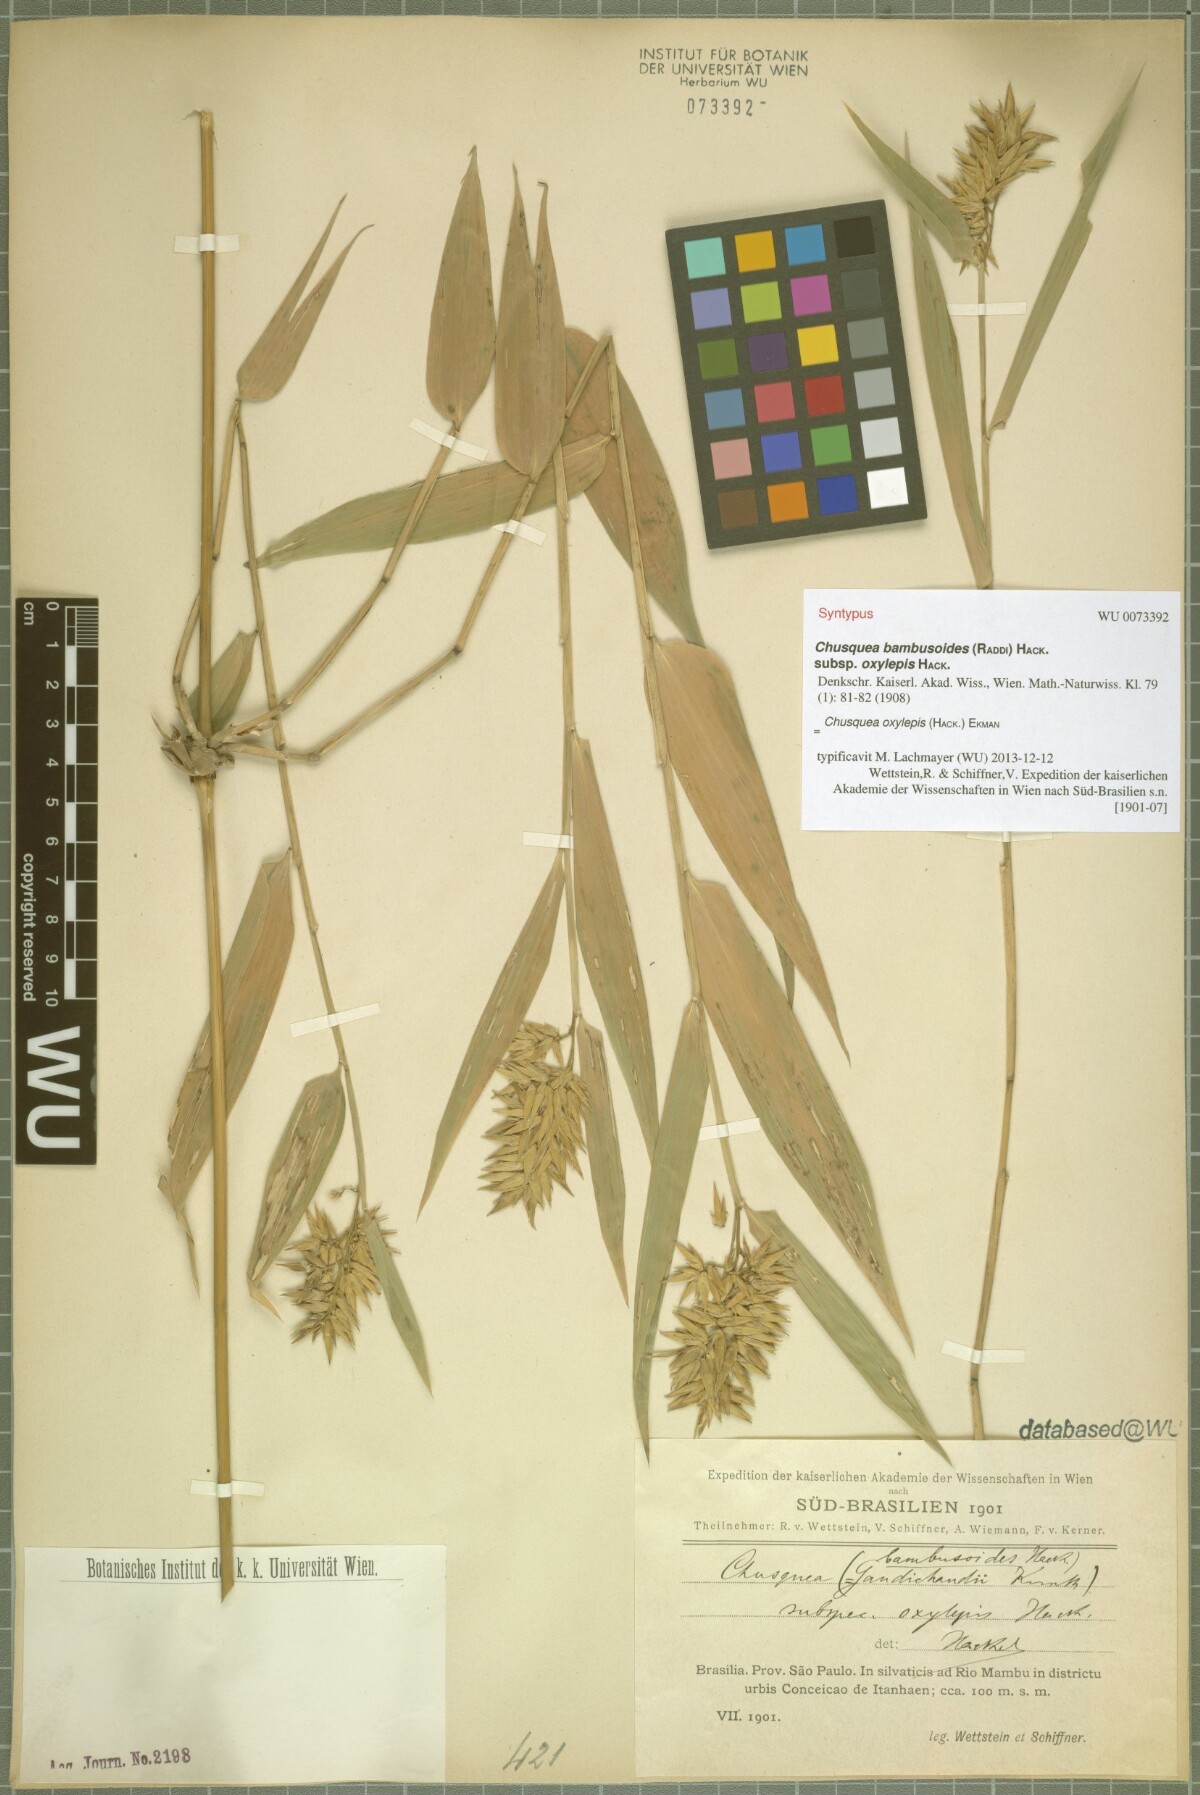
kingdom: Plantae
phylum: Tracheophyta
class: Liliopsida
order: Poales
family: Poaceae
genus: Chusquea
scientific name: Chusquea oxylepis
